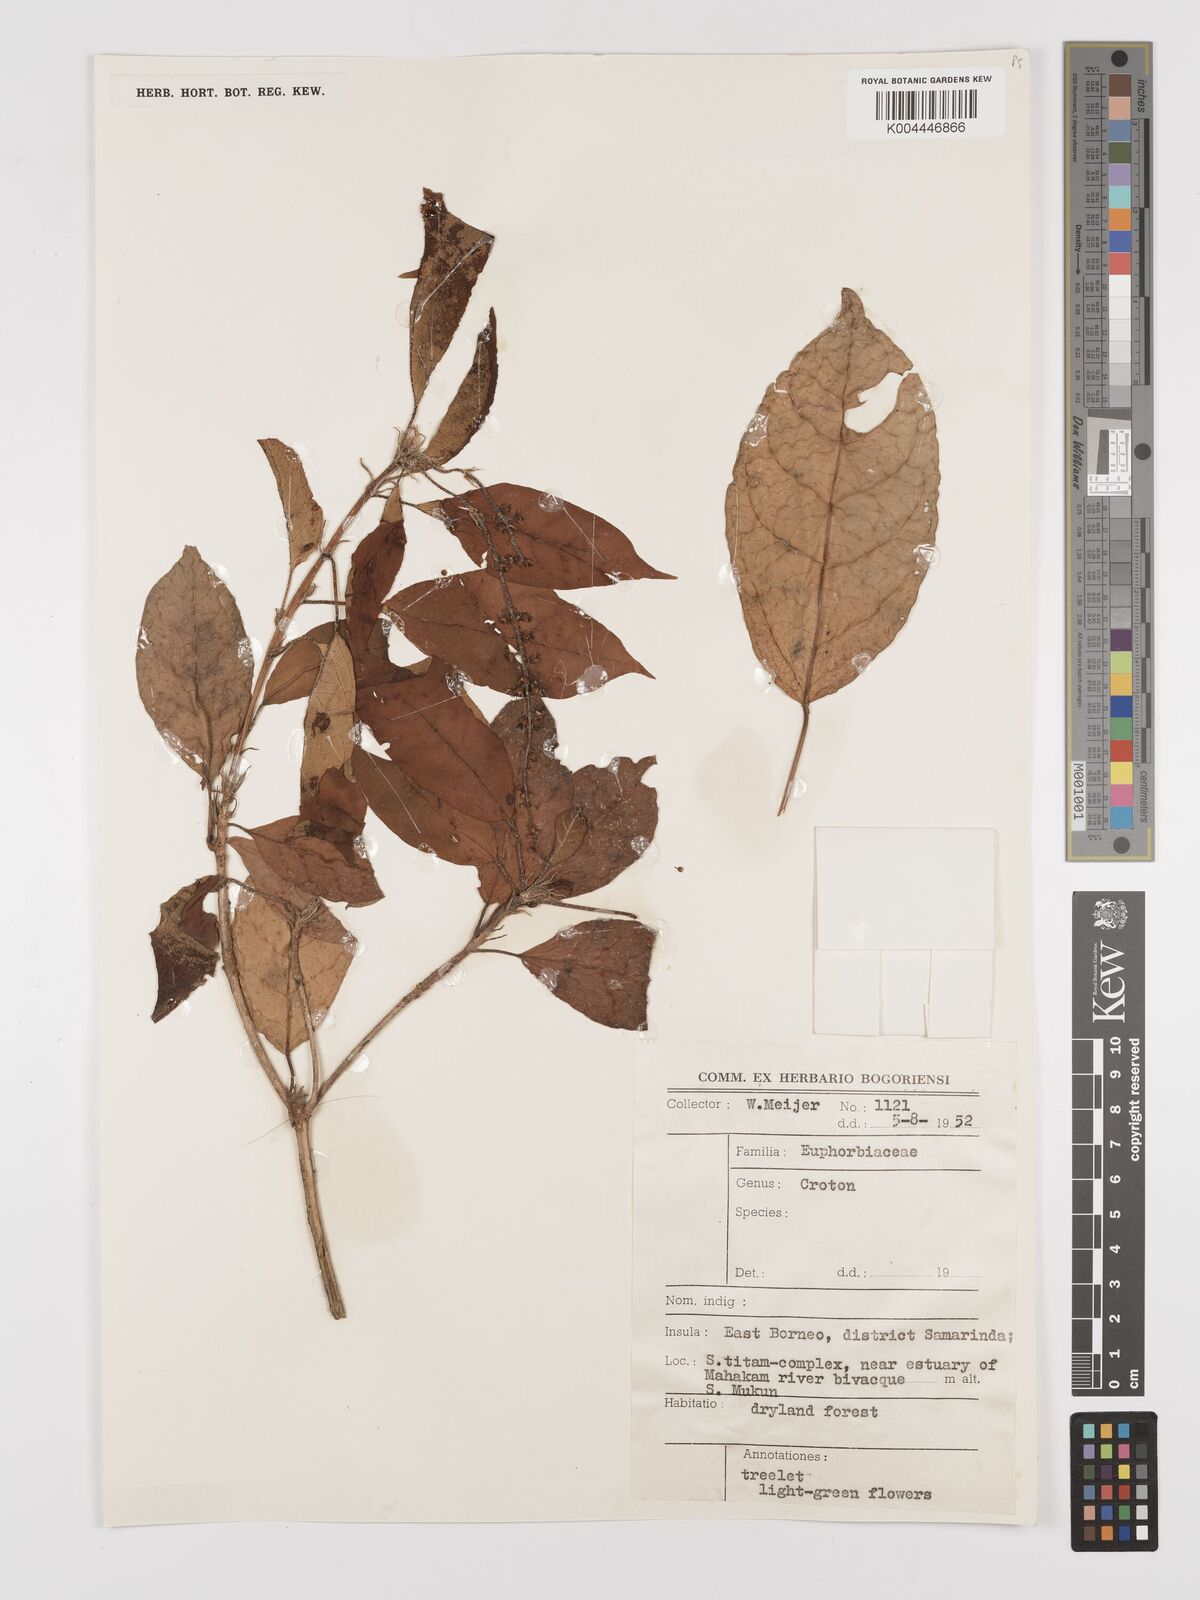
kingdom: Plantae
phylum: Tracheophyta
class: Magnoliopsida
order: Malpighiales
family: Euphorbiaceae
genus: Croton
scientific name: Croton
